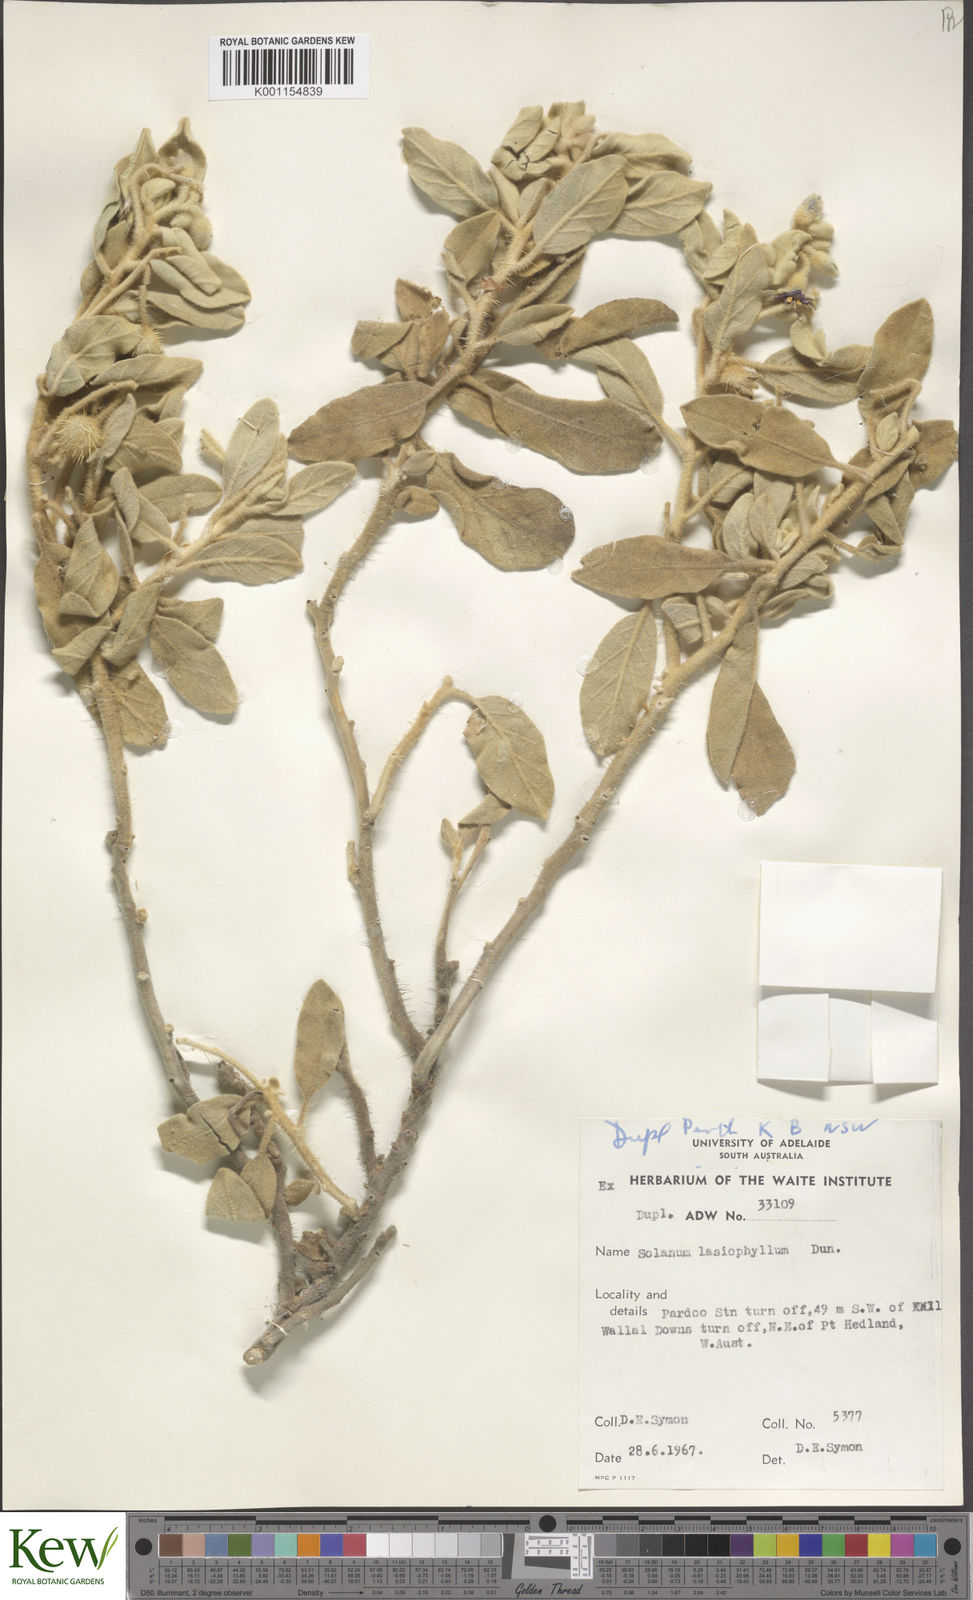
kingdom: Plantae
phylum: Tracheophyta
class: Magnoliopsida
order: Solanales
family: Solanaceae
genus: Solanum
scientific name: Solanum lasiophyllum
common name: Flannelbush
